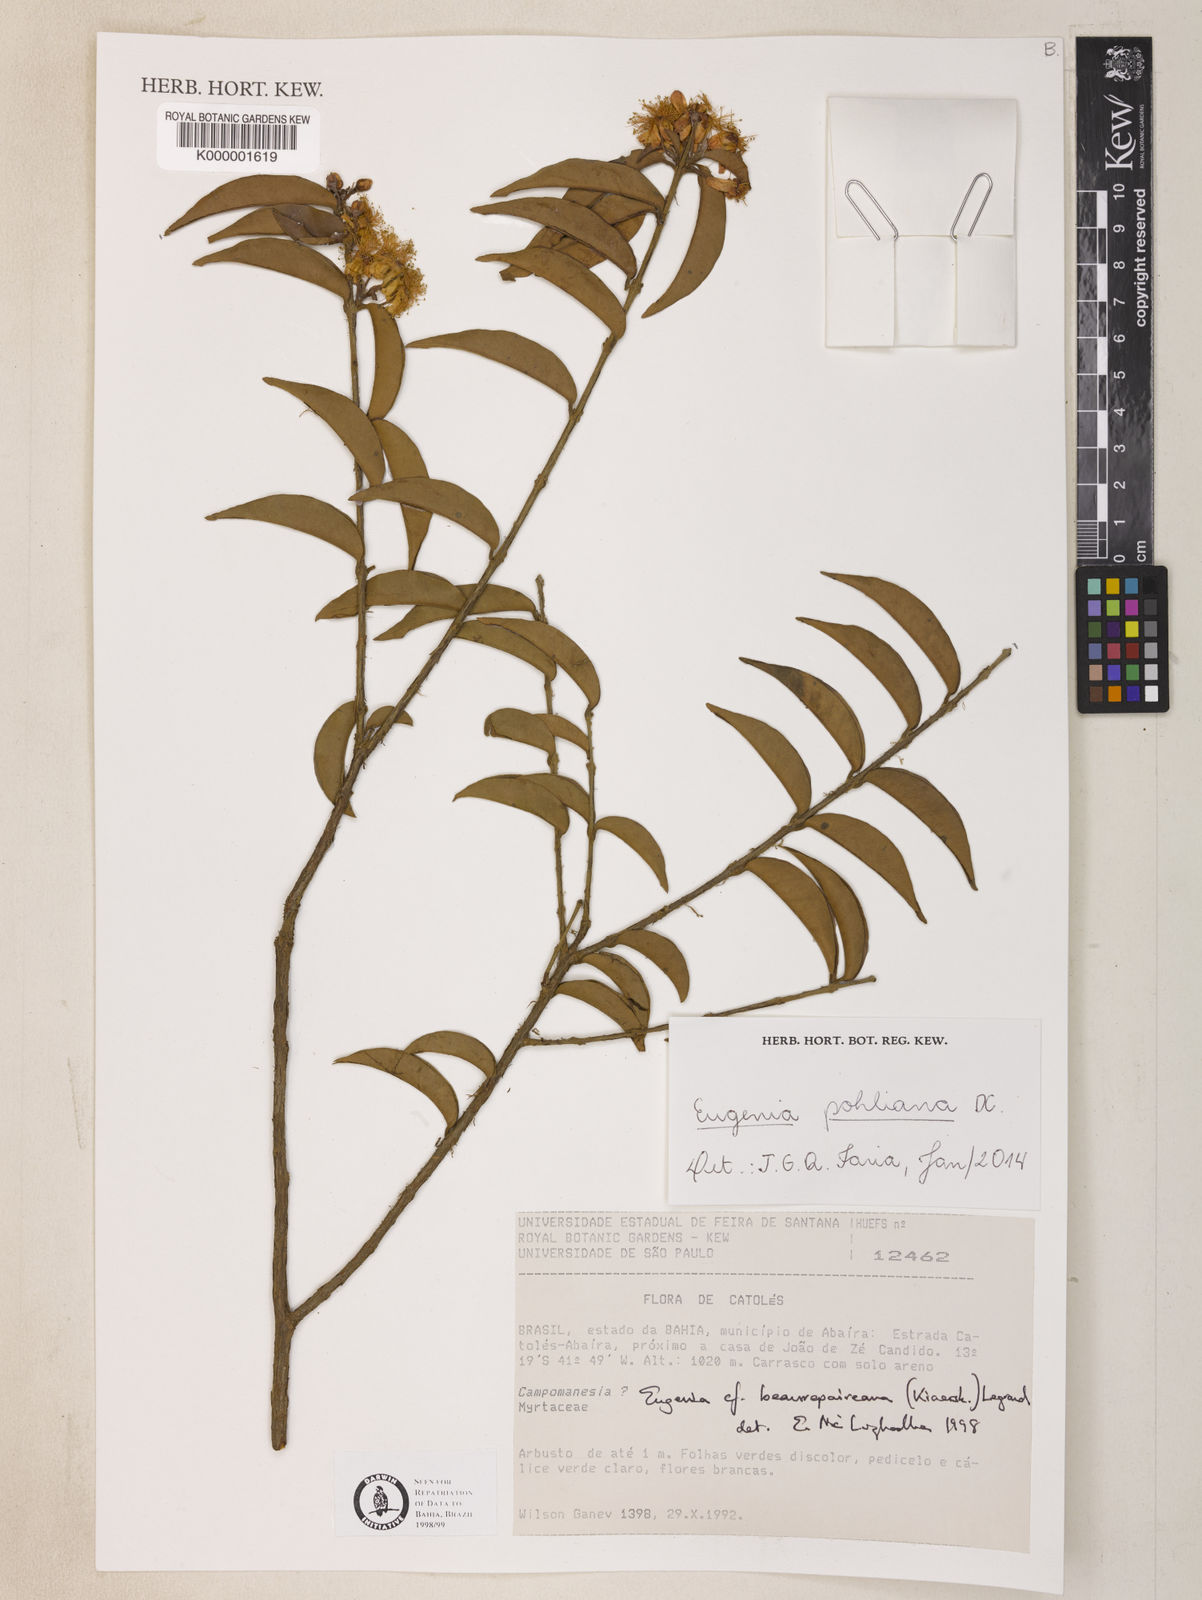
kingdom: Plantae
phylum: Tracheophyta
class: Magnoliopsida
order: Myrtales
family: Myrtaceae
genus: Eugenia
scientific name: Eugenia pohliana
